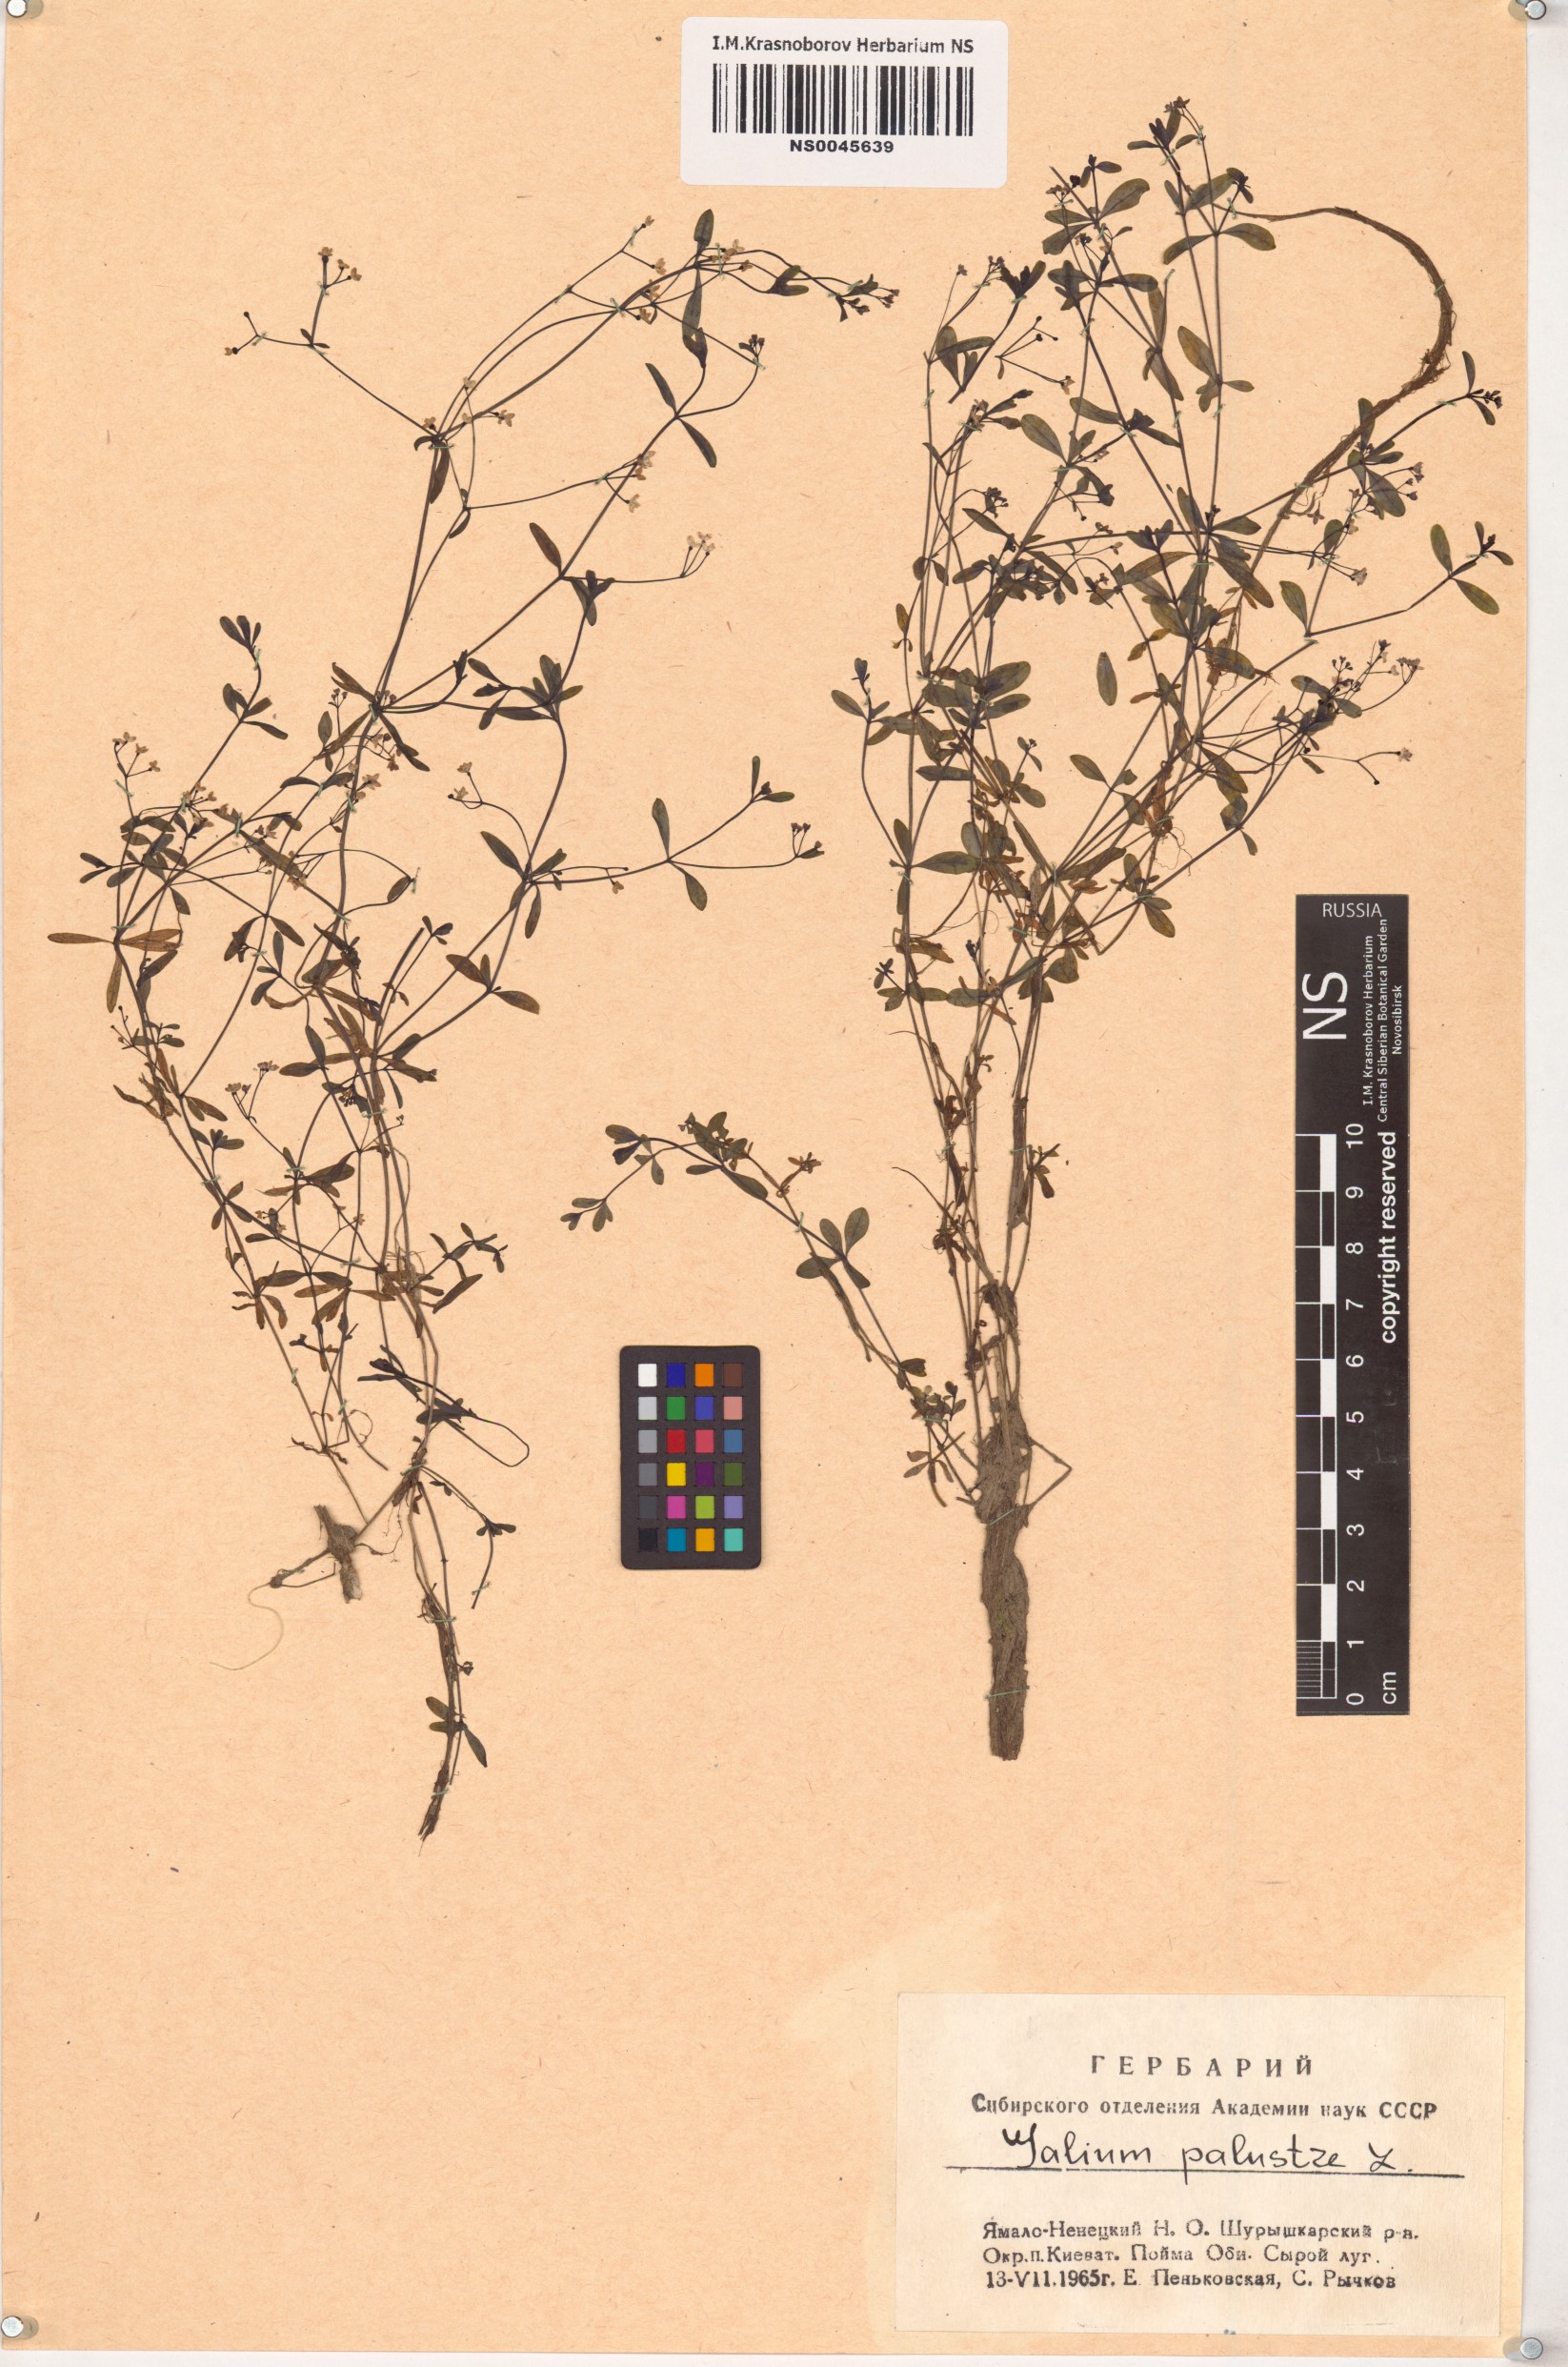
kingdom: Plantae
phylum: Tracheophyta
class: Magnoliopsida
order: Gentianales
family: Rubiaceae
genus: Galium
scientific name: Galium palustre
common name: Common marsh-bedstraw
